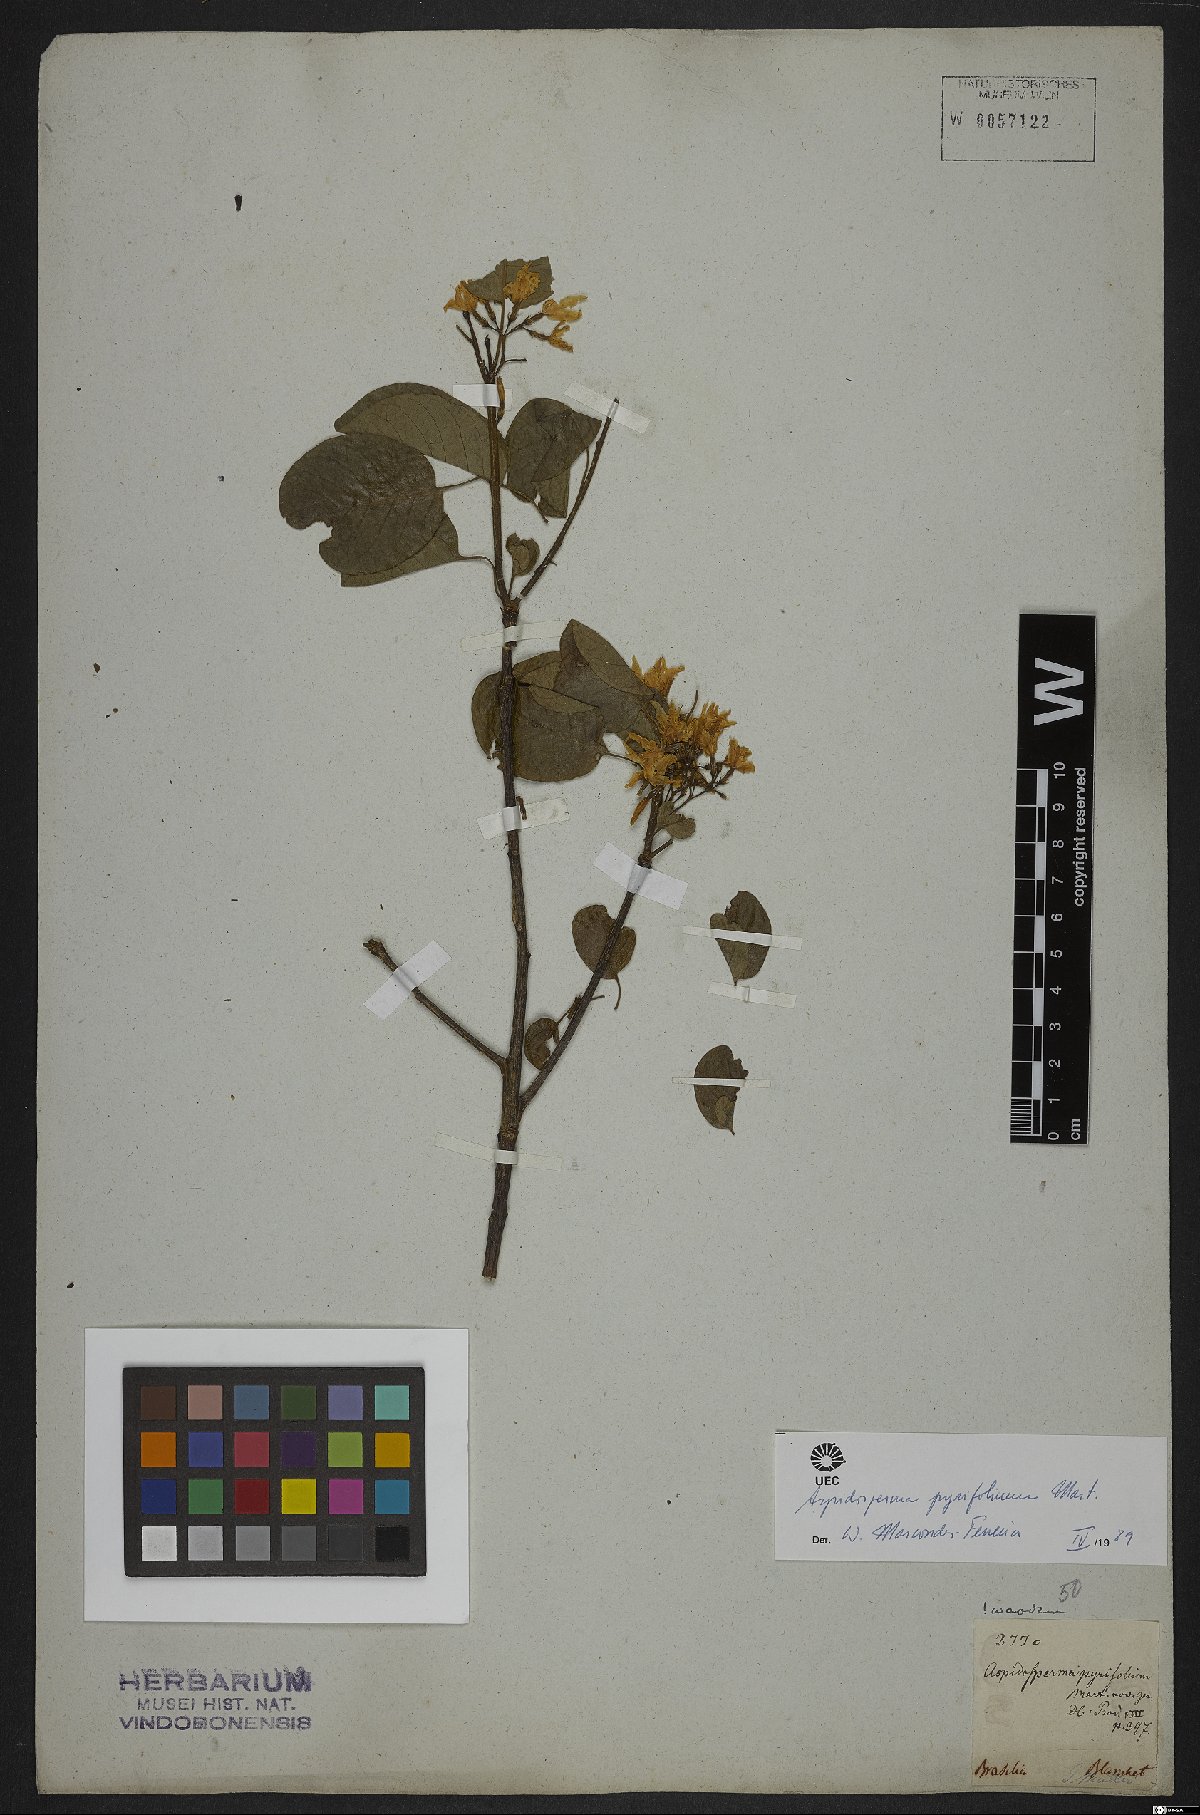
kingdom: Plantae
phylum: Tracheophyta
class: Magnoliopsida
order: Gentianales
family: Apocynaceae
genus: Aspidosperma
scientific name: Aspidosperma pyrifolium
